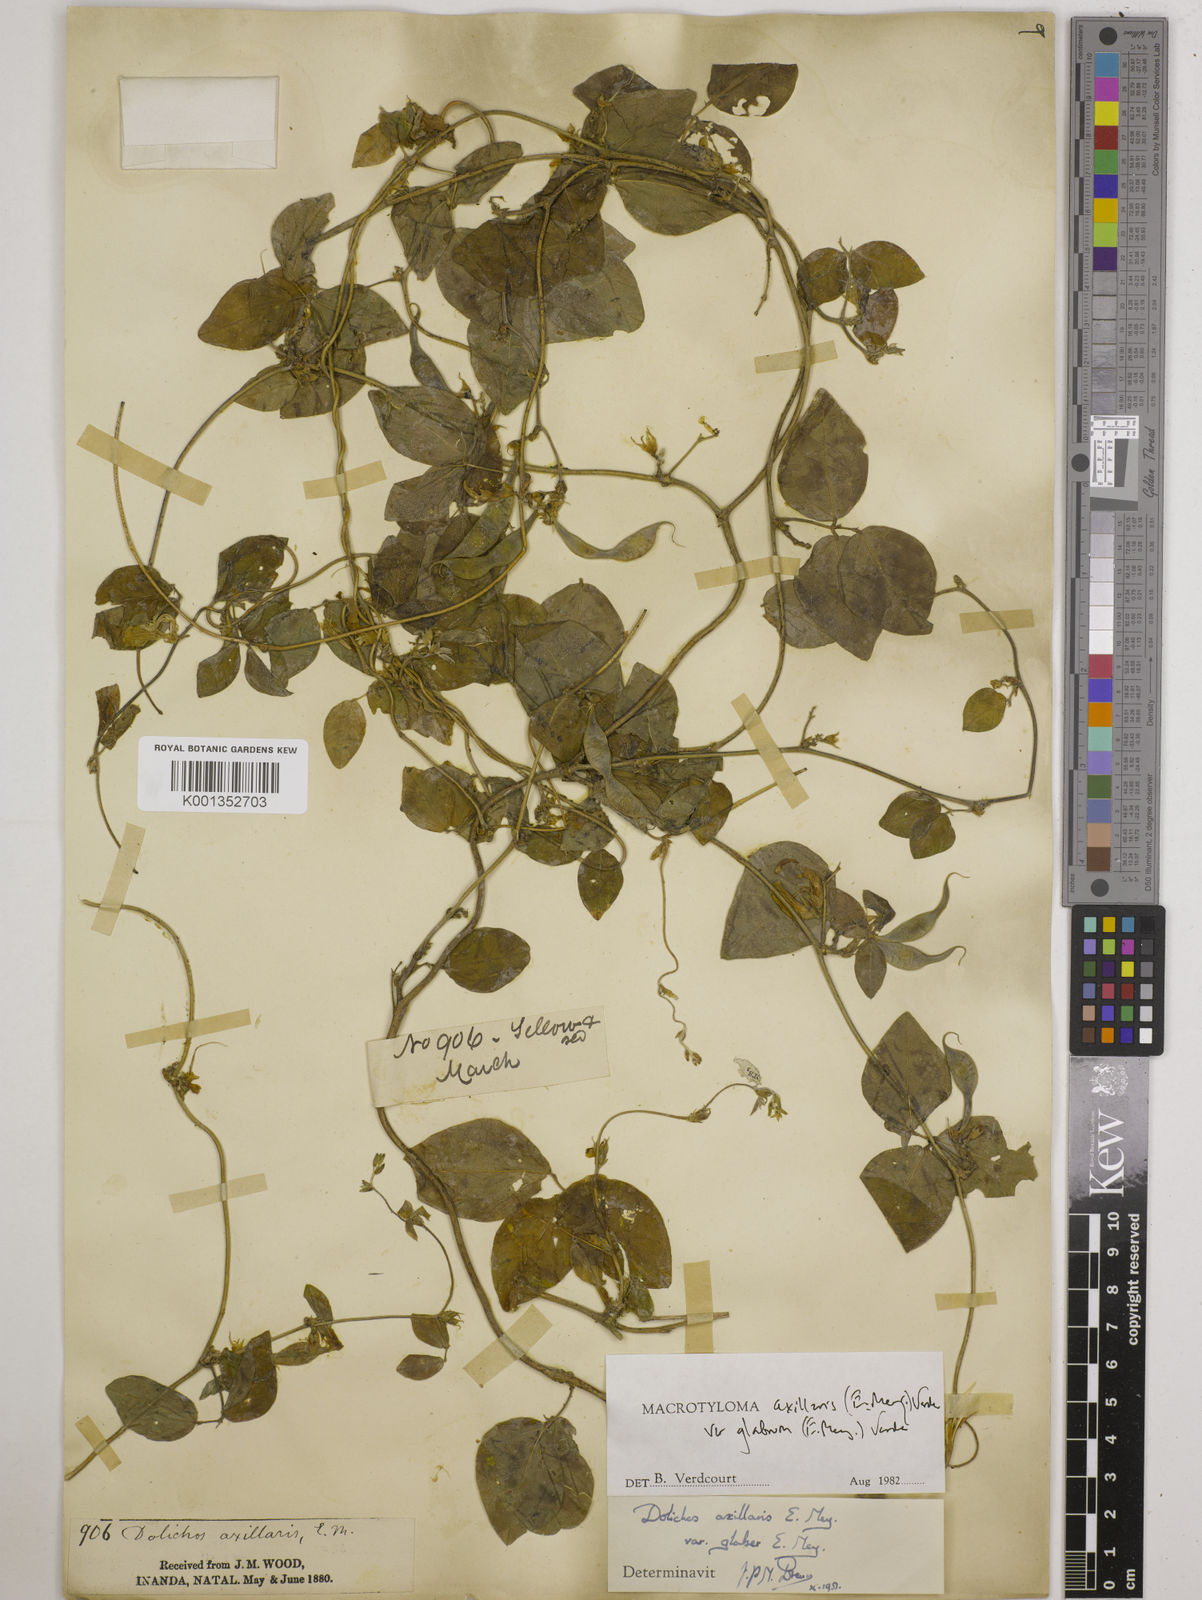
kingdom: Plantae
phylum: Tracheophyta
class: Magnoliopsida
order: Fabales
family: Fabaceae
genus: Macrotyloma
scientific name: Macrotyloma
